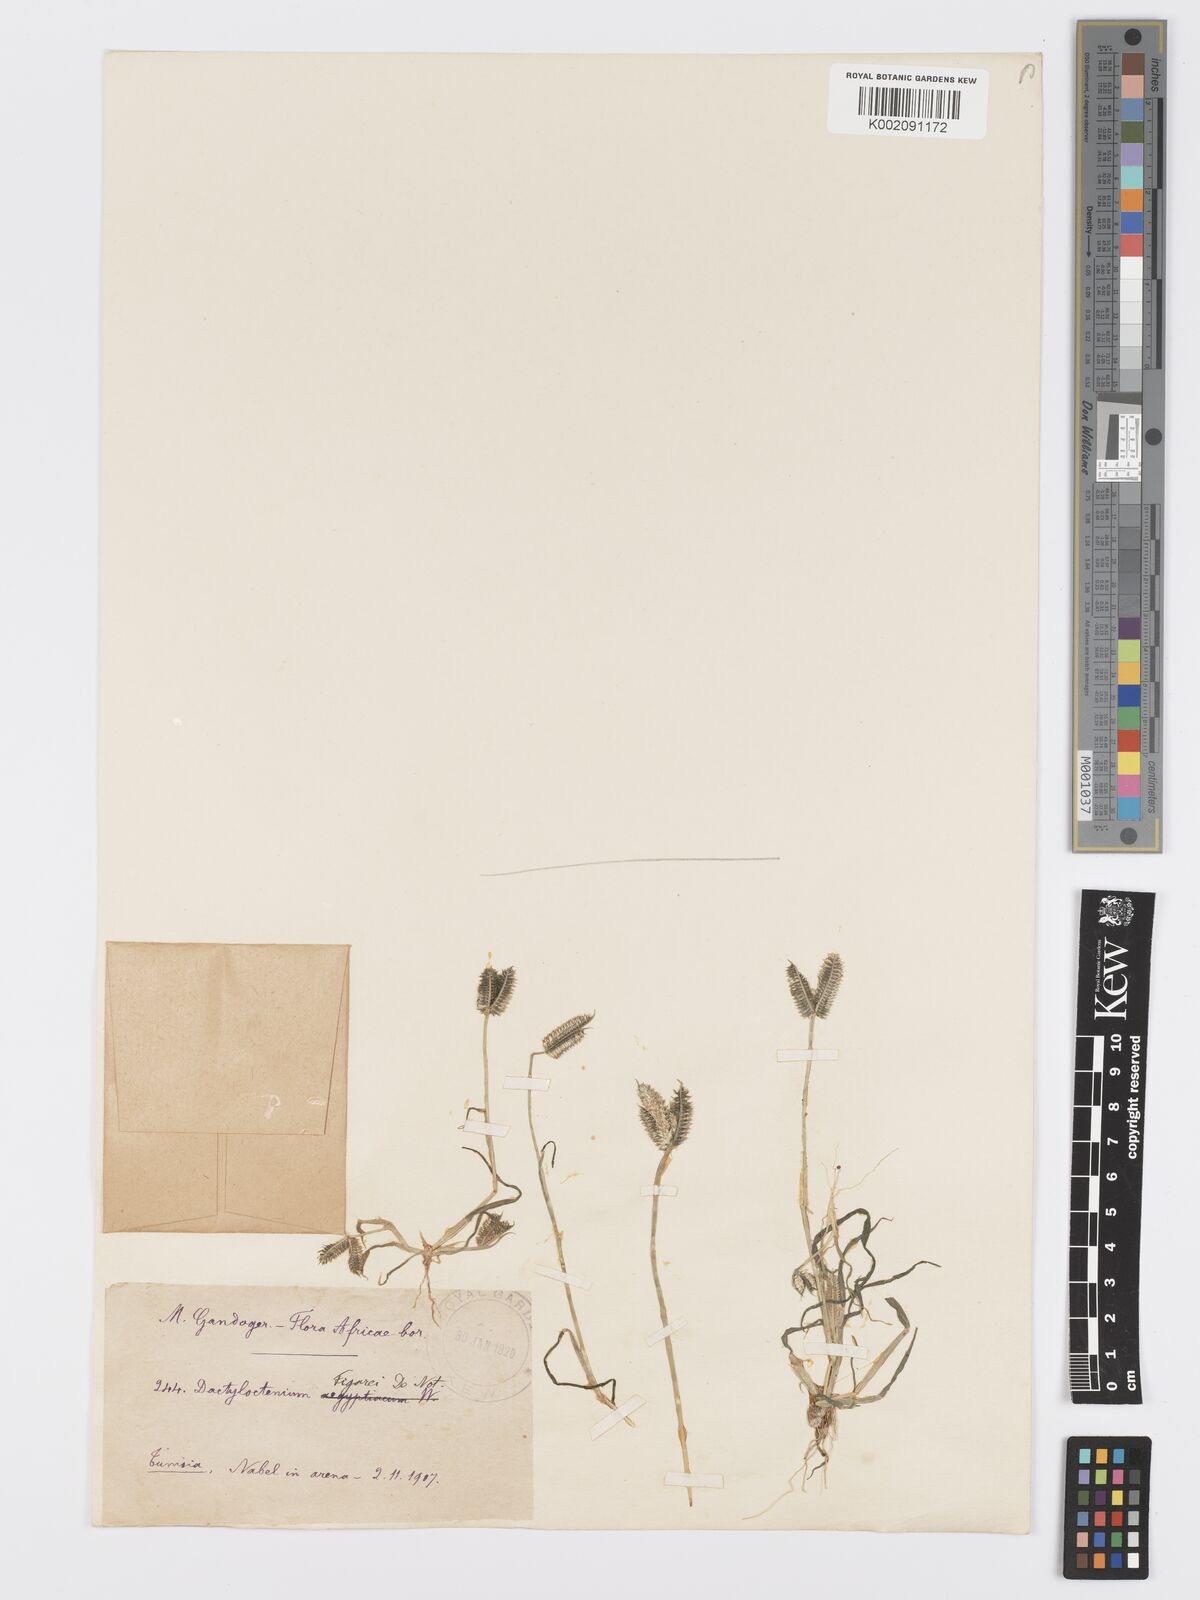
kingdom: Plantae
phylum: Tracheophyta
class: Liliopsida
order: Poales
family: Poaceae
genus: Dactyloctenium
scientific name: Dactyloctenium aegyptium
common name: Egyptian grass
